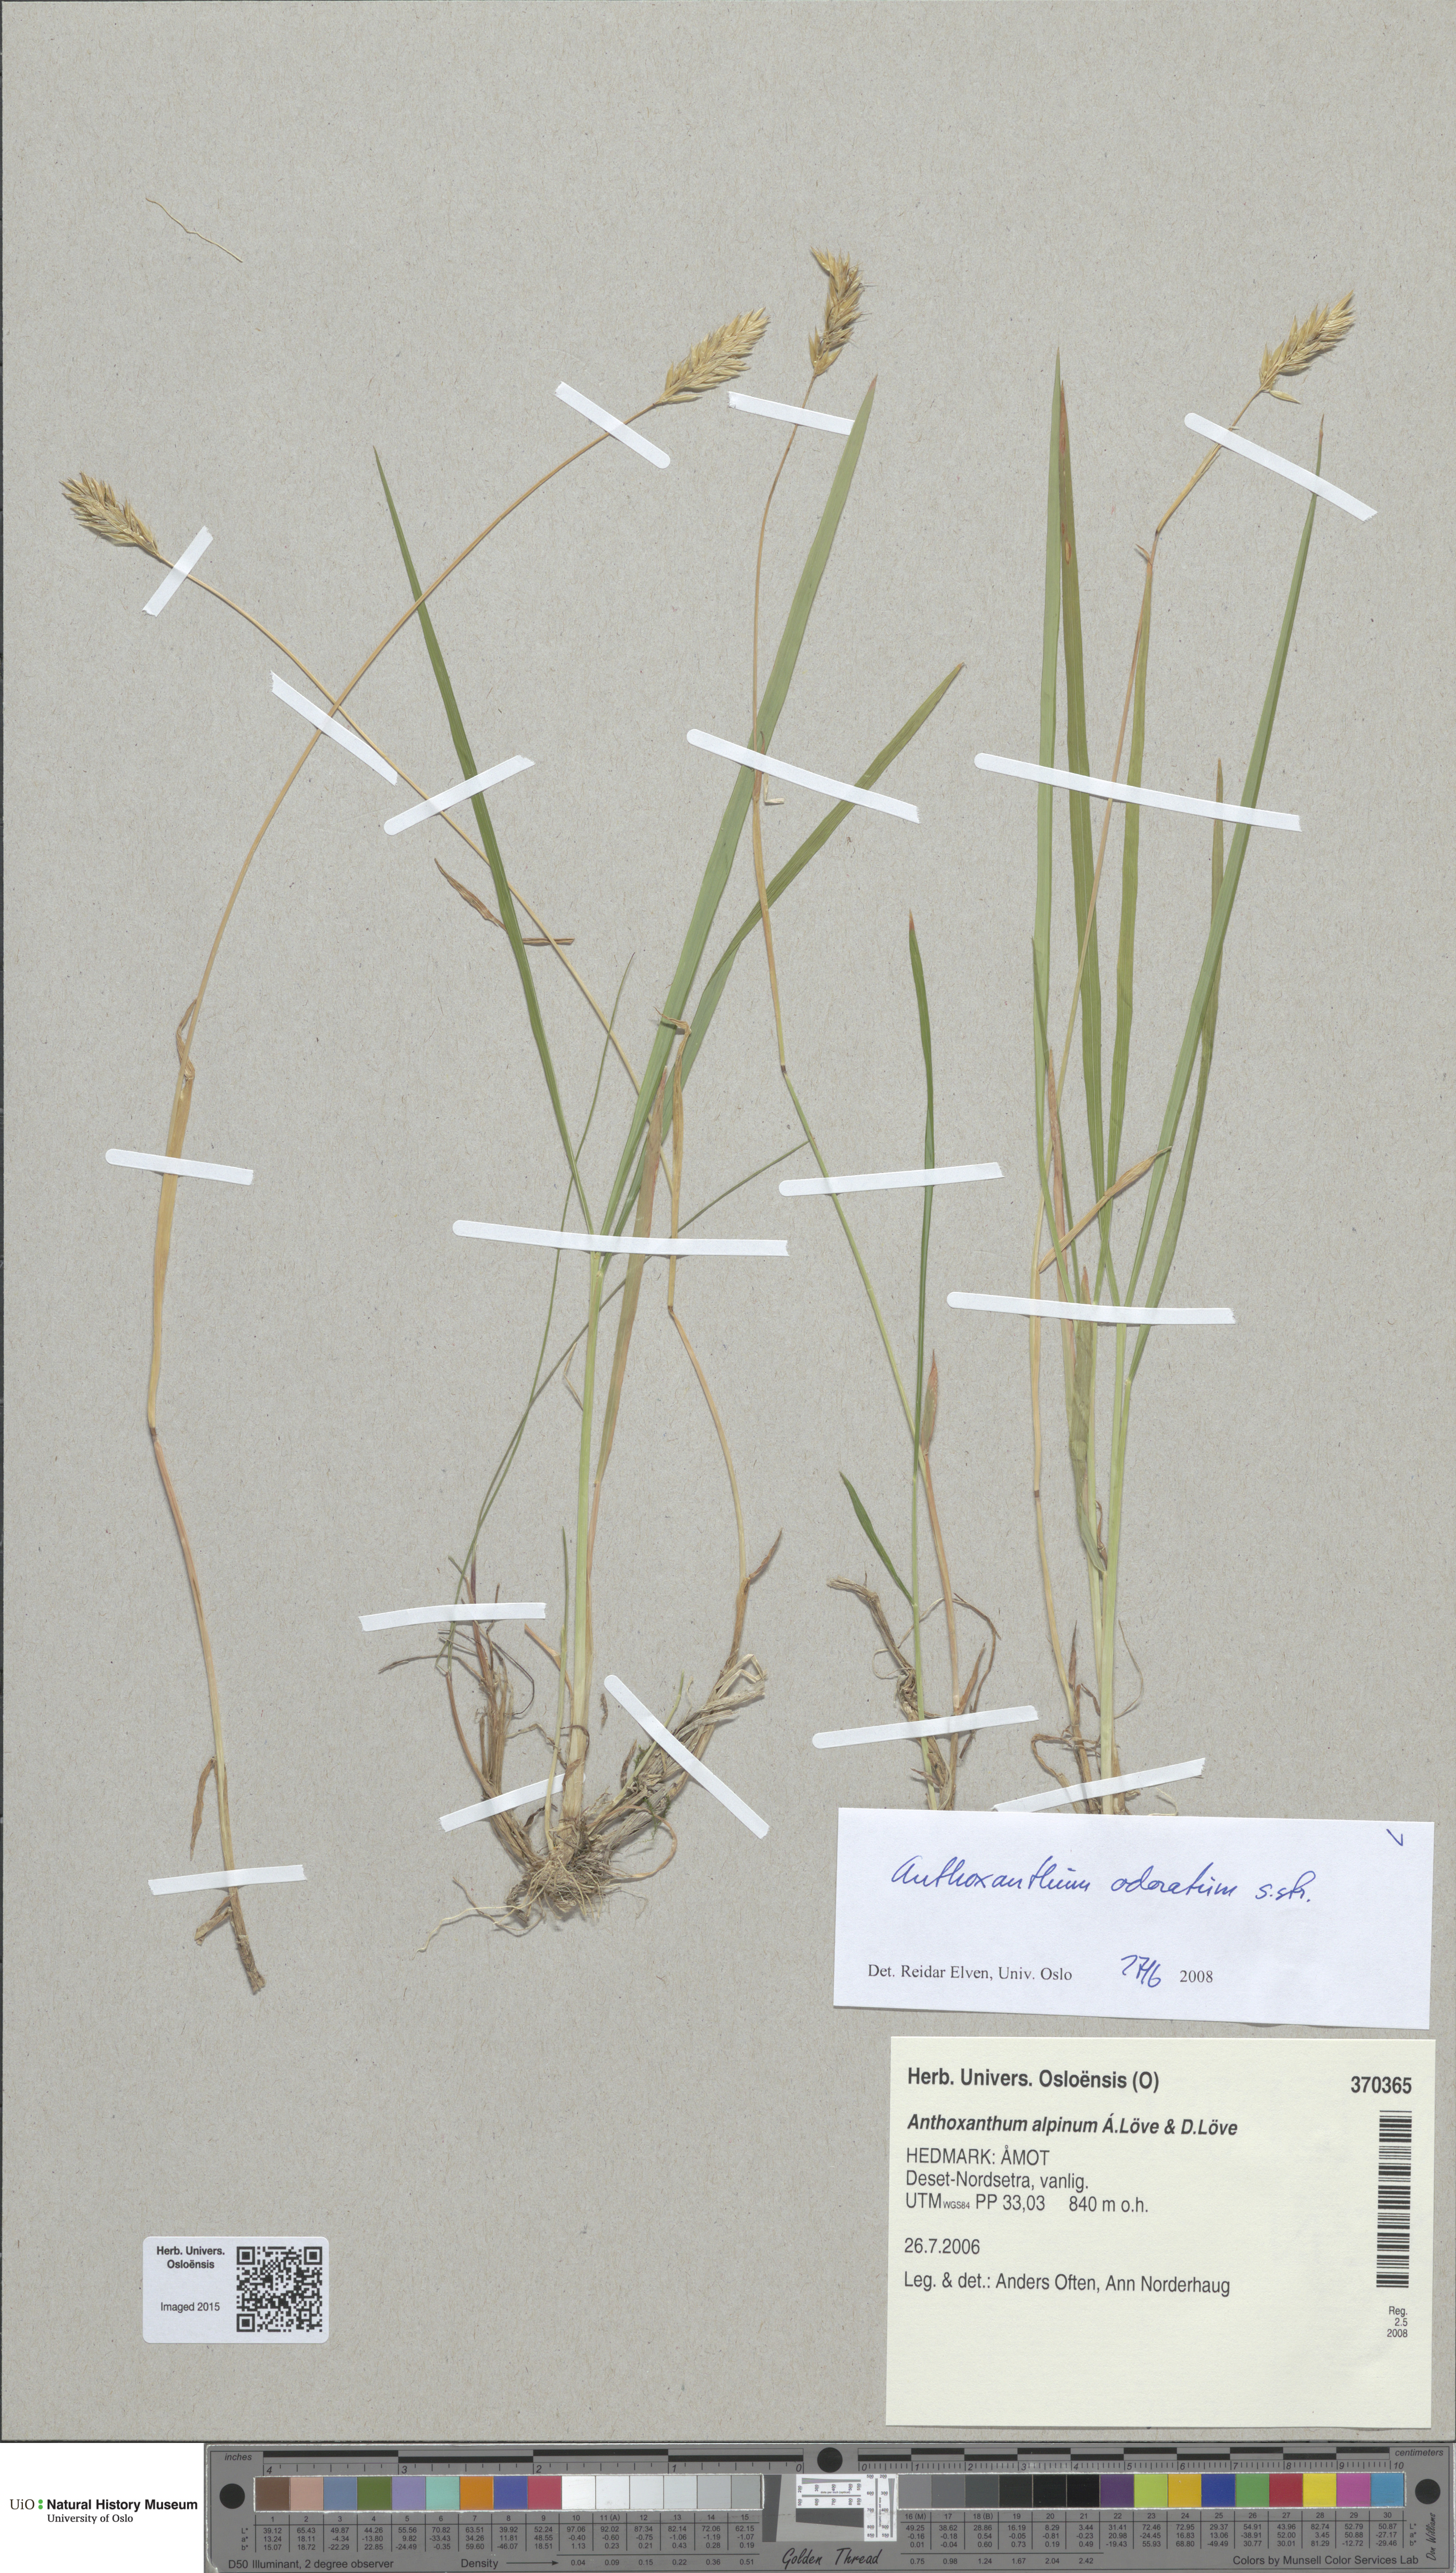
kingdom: Plantae
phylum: Tracheophyta
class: Liliopsida
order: Poales
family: Poaceae
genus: Anthoxanthum
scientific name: Anthoxanthum odoratum
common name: Sweet vernalgrass
